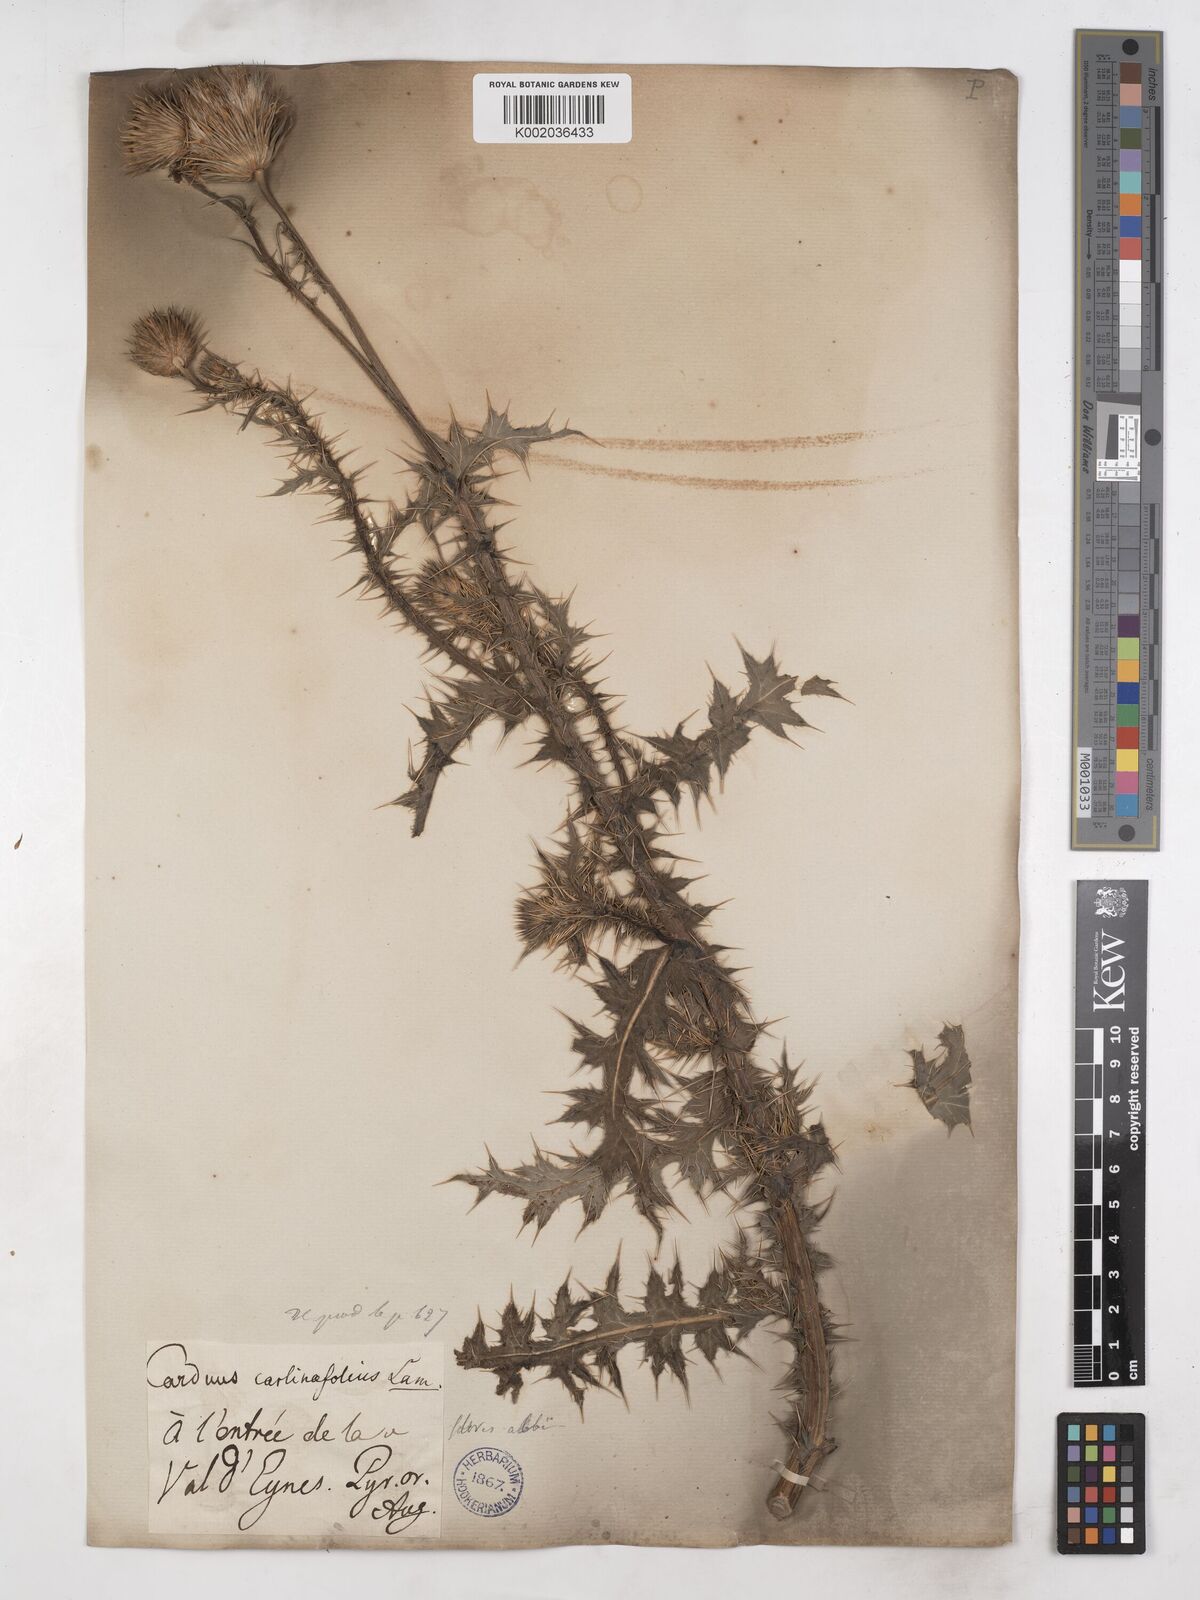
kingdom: Plantae
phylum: Tracheophyta
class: Magnoliopsida
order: Asterales
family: Asteraceae
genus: Carduus
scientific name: Carduus carlinifolius
